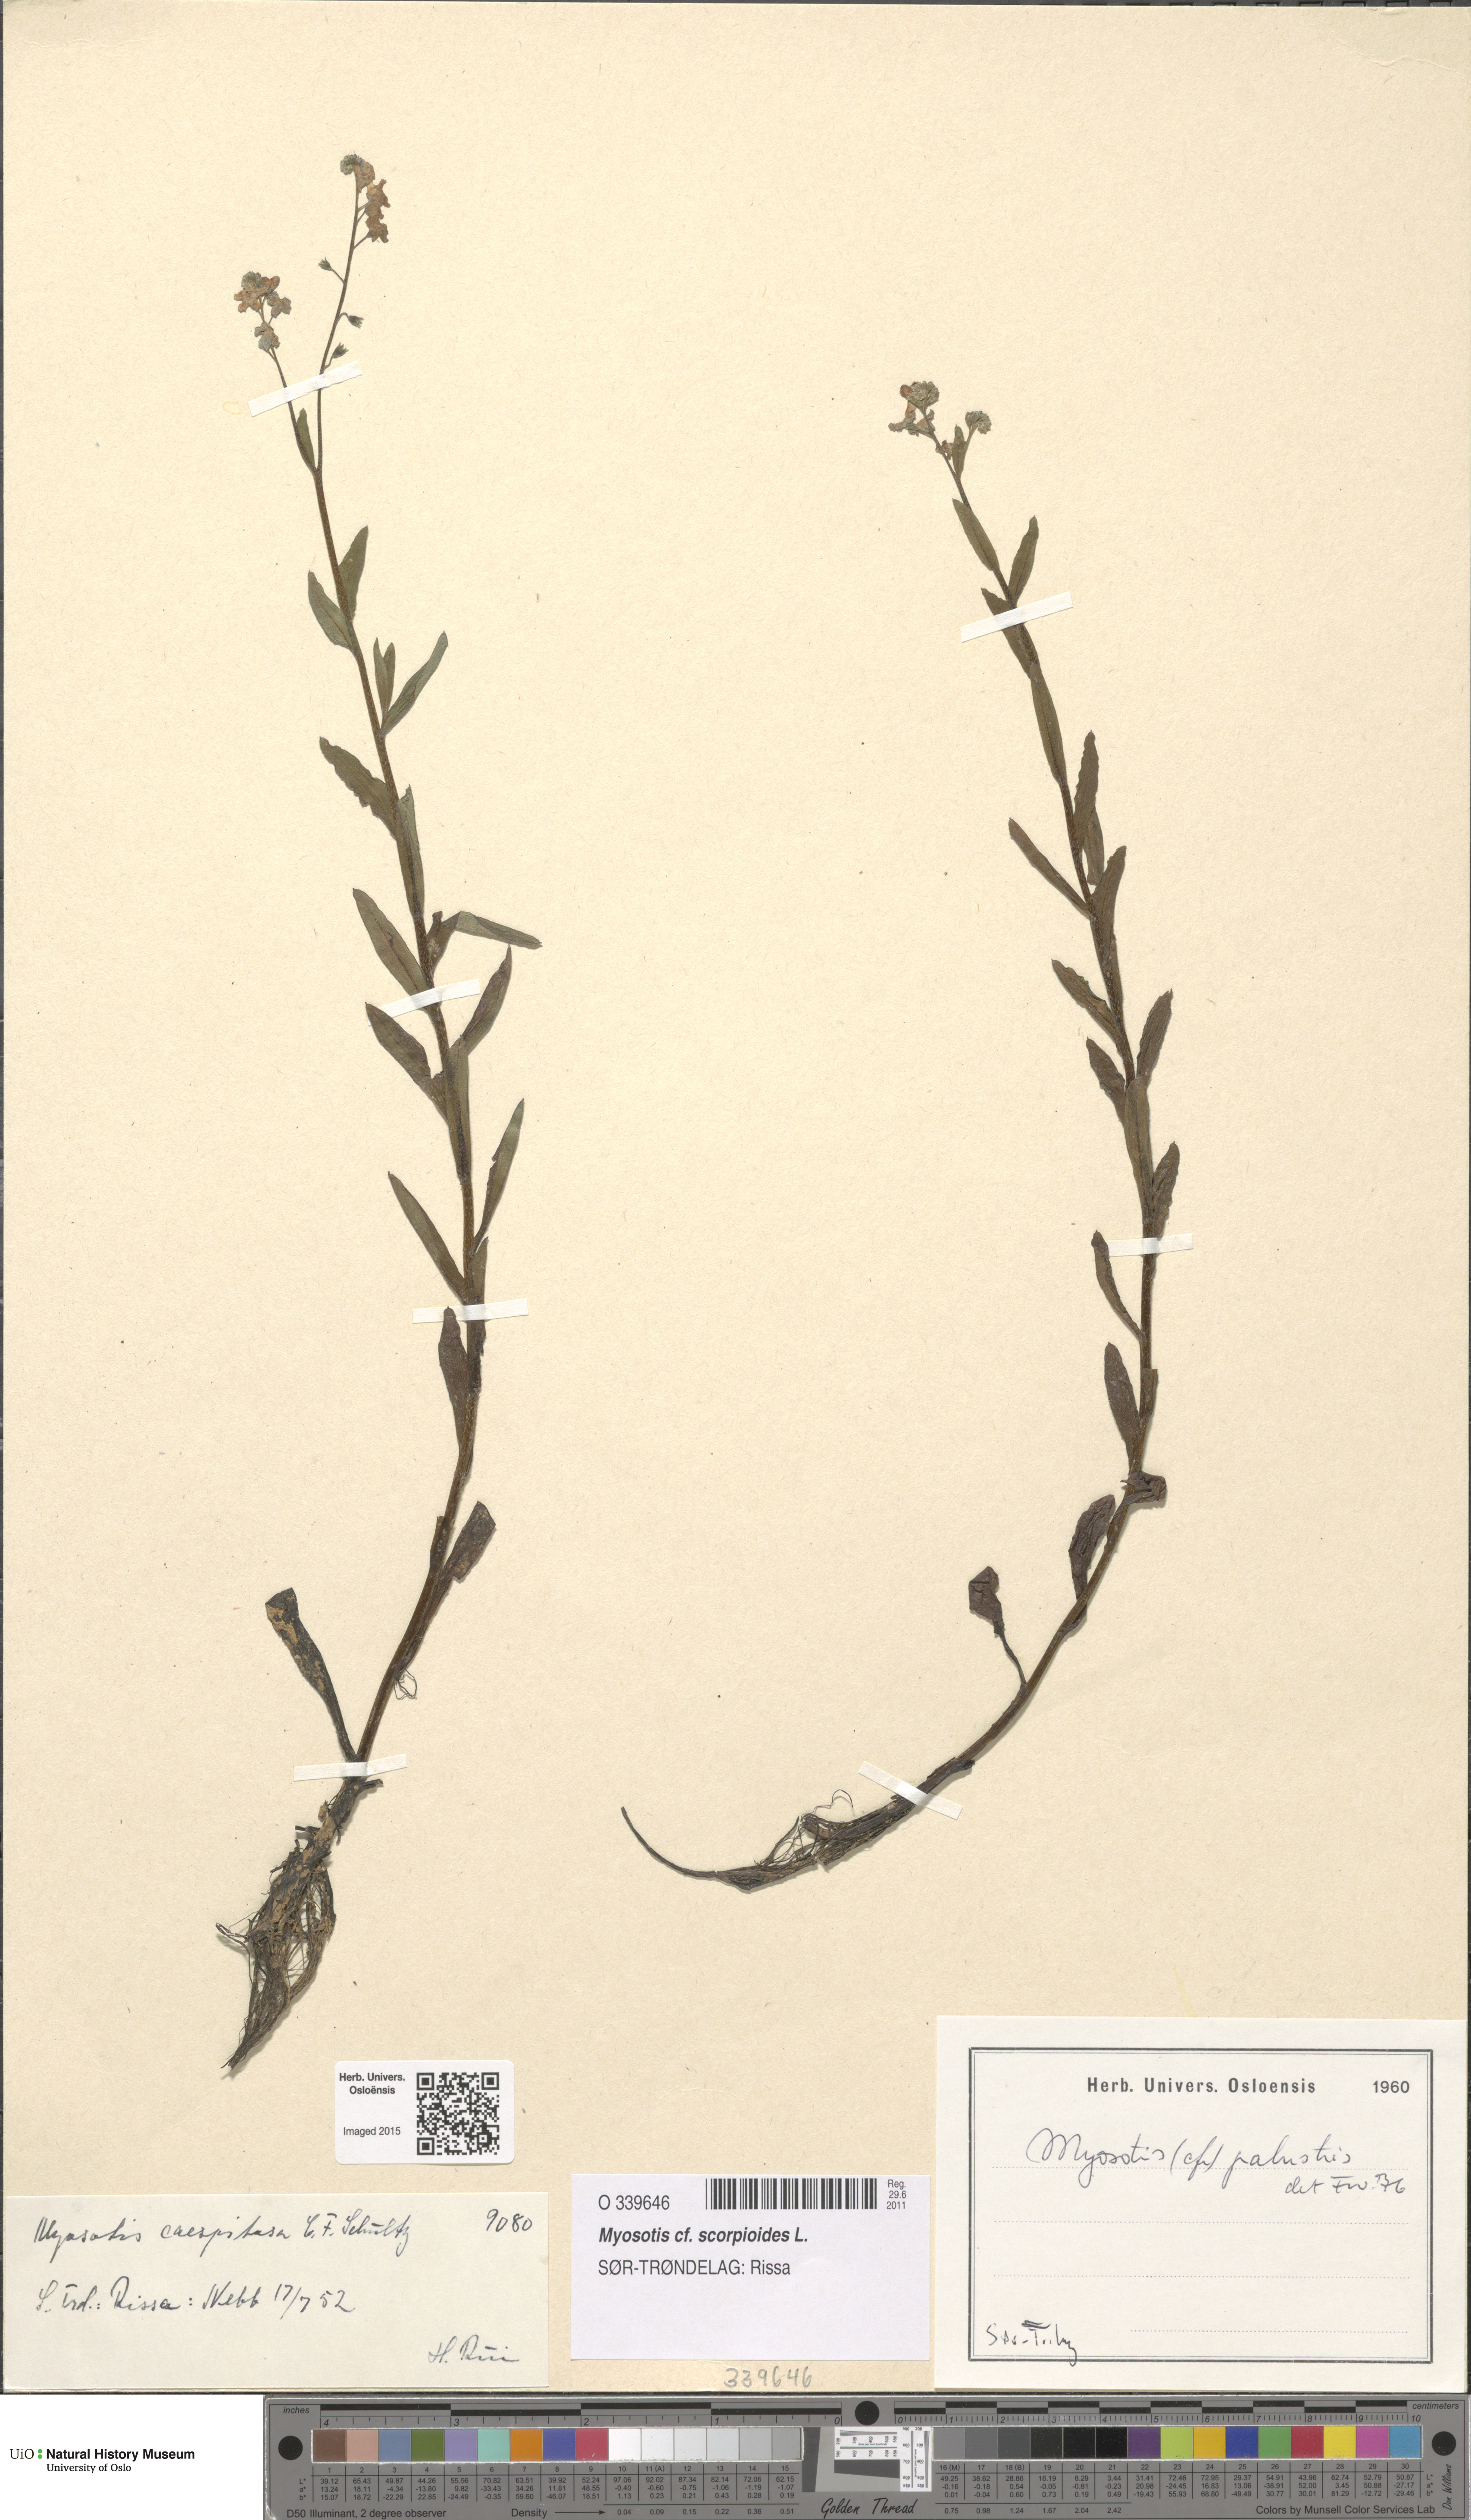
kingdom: Plantae
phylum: Tracheophyta
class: Magnoliopsida
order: Boraginales
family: Boraginaceae
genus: Myosotis
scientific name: Myosotis scorpioides
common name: Water forget-me-not
